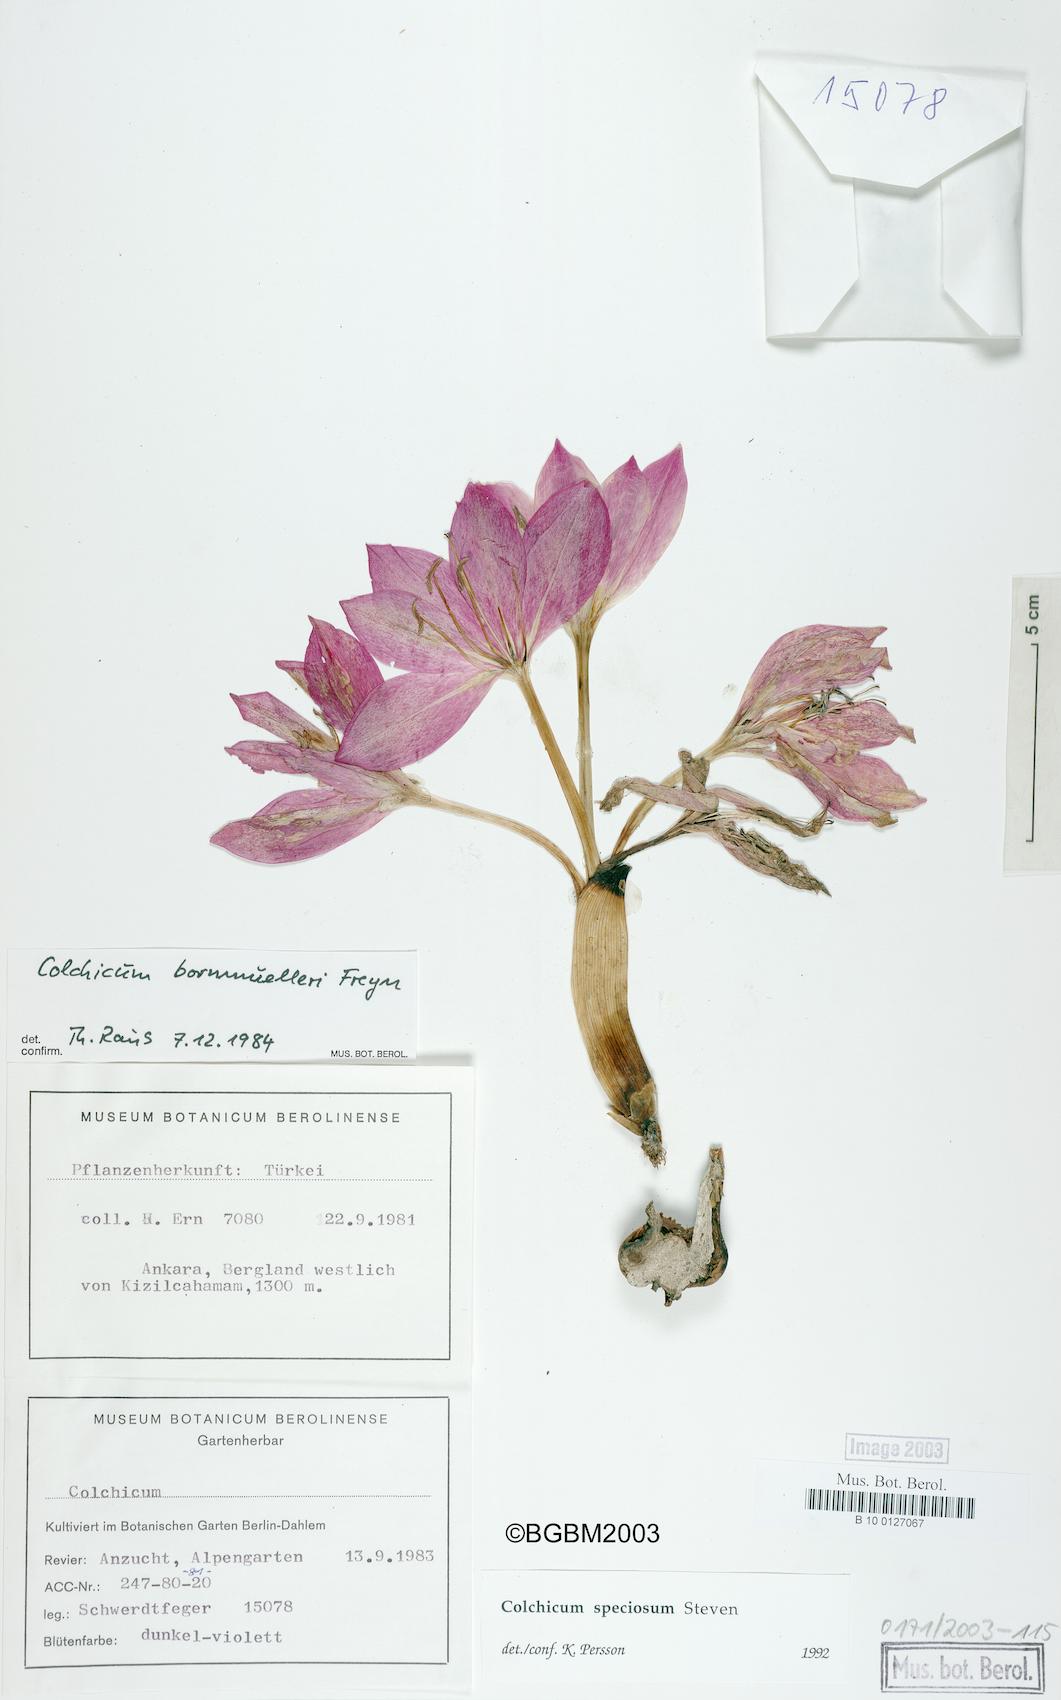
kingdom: Plantae
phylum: Tracheophyta
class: Liliopsida
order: Liliales
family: Colchicaceae
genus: Colchicum
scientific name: Colchicum speciosum
